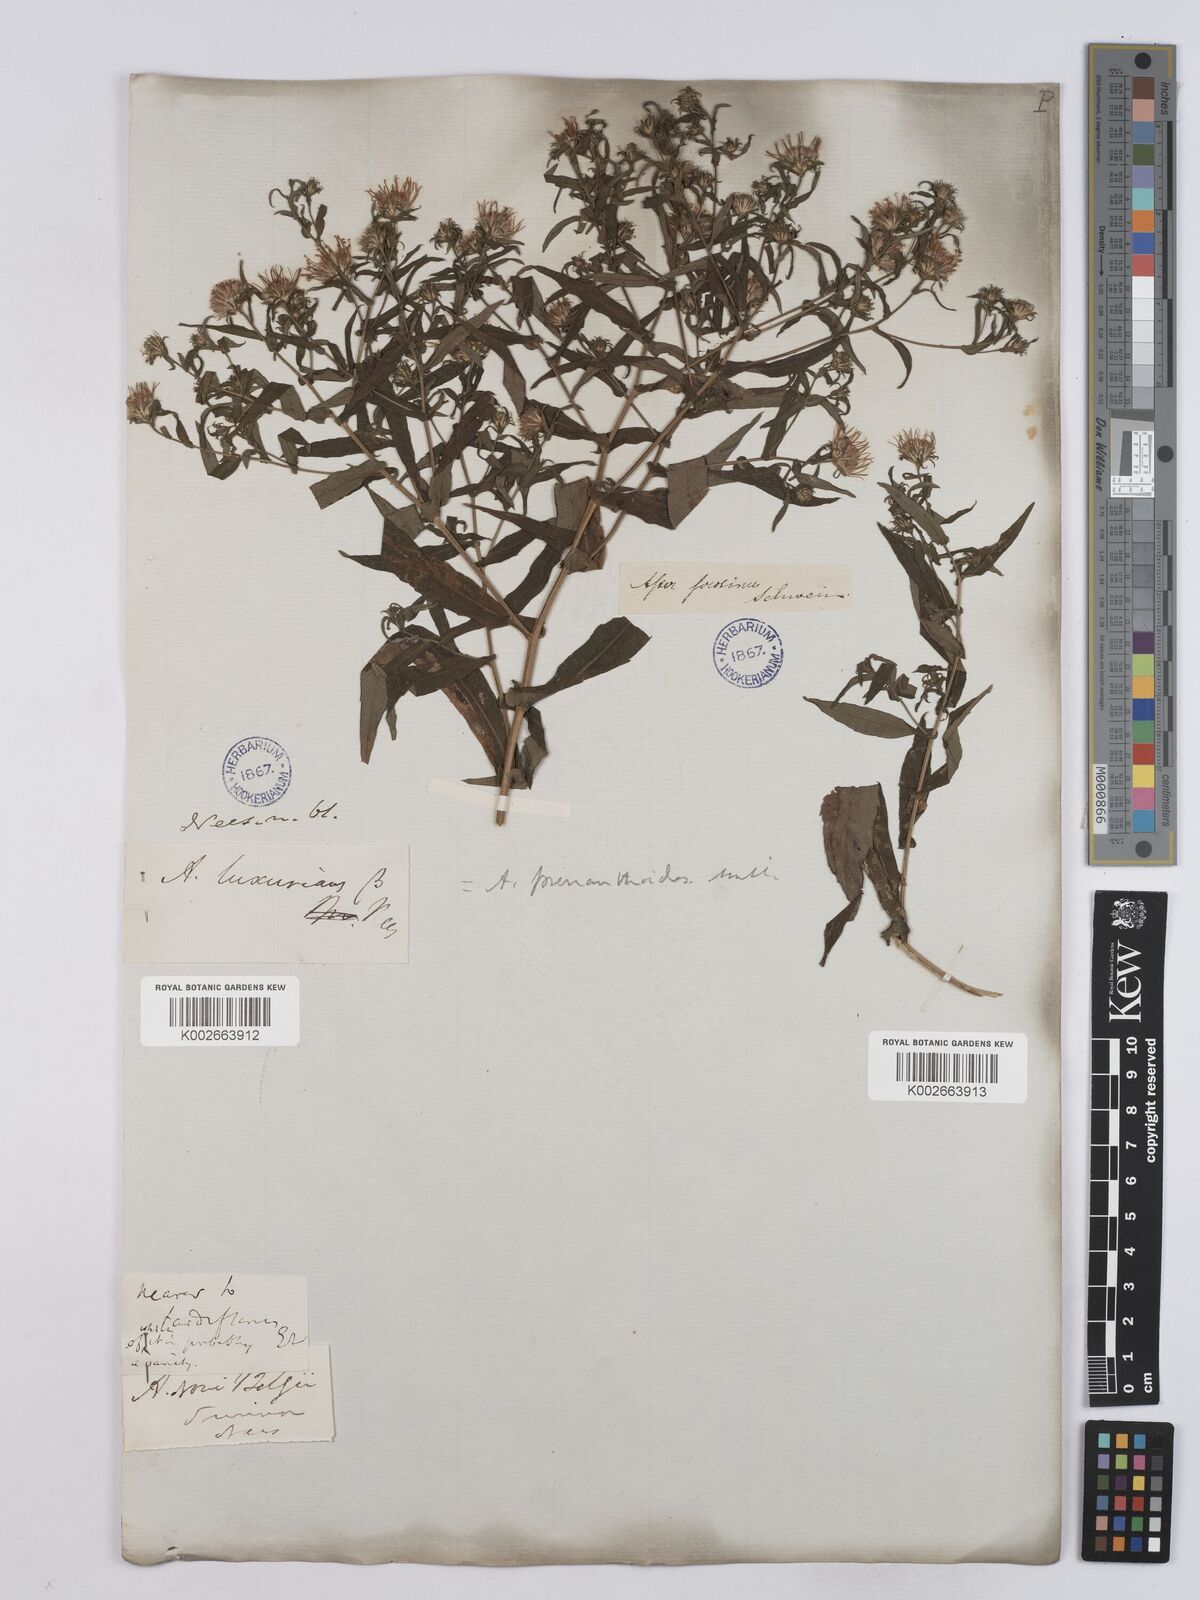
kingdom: Plantae
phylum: Tracheophyta
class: Magnoliopsida
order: Asterales
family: Asteraceae
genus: Symphyotrichum
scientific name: Symphyotrichum prenanthoides
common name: Crooked-stem aster
